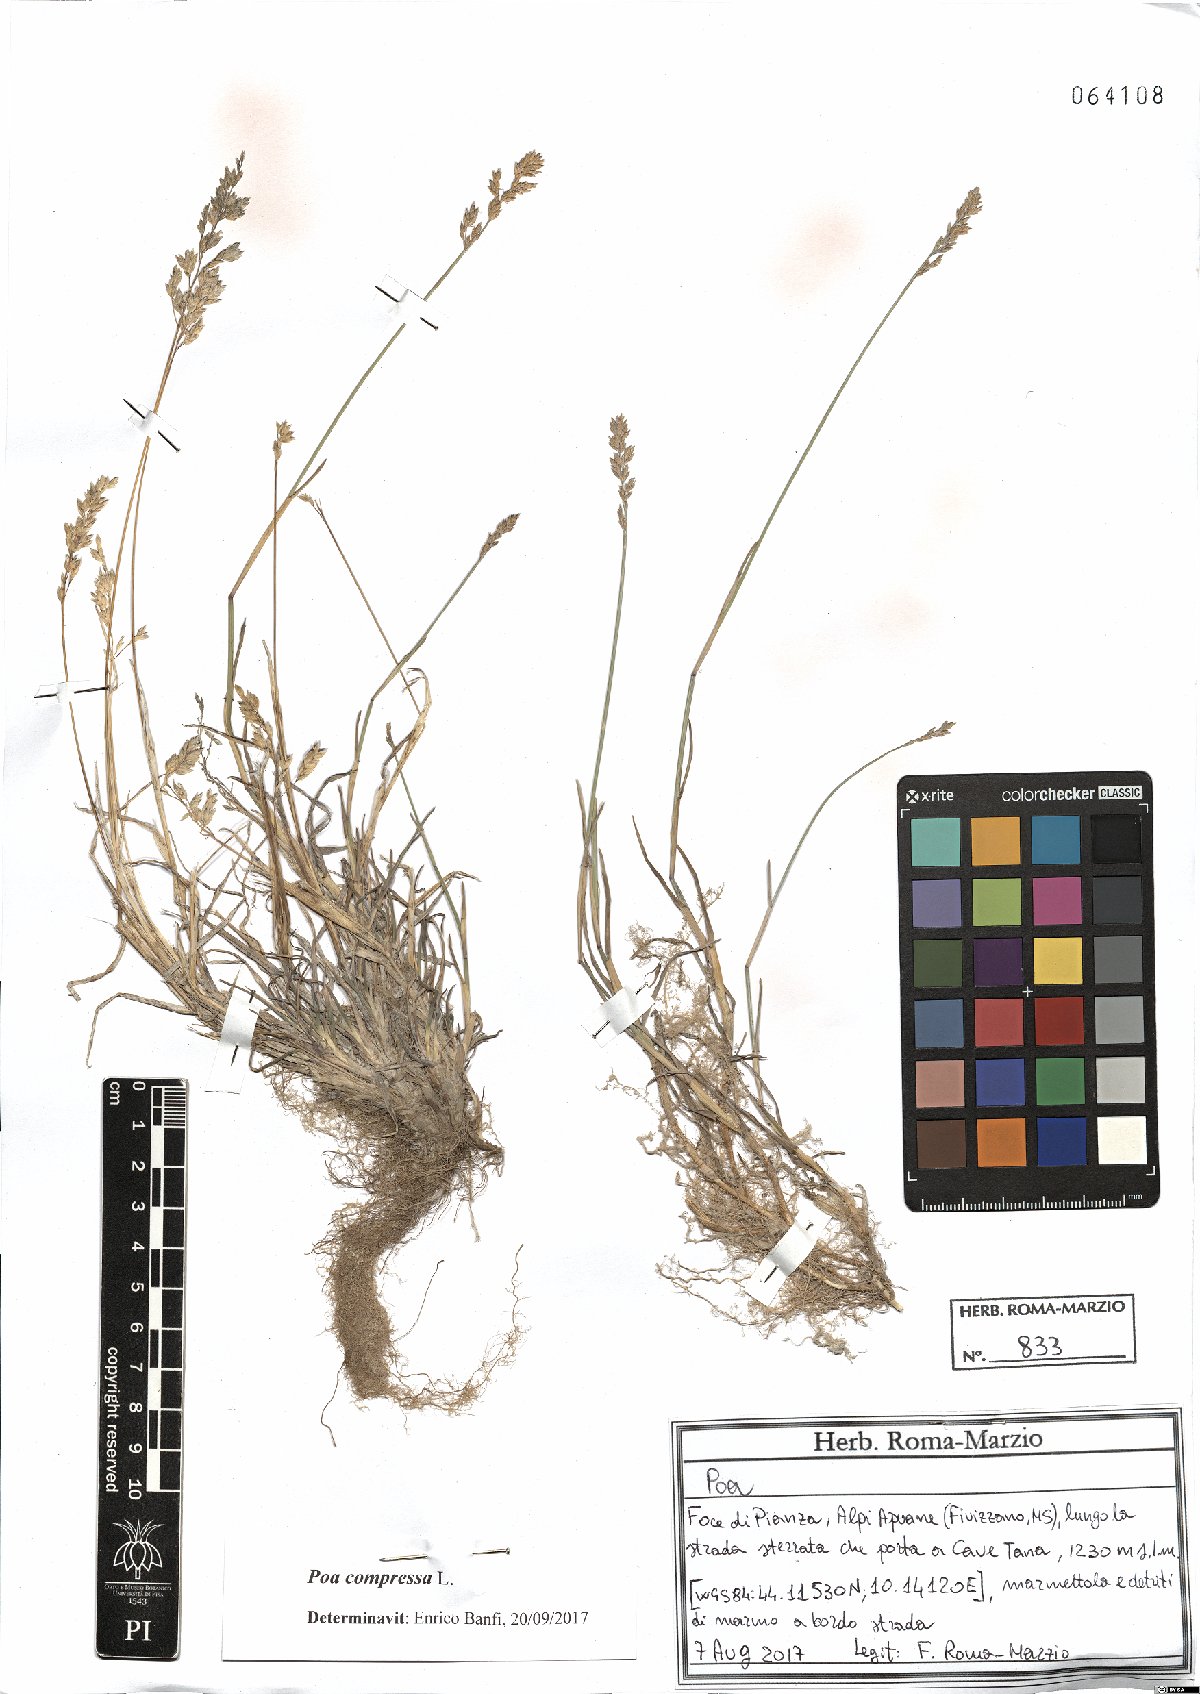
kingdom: Plantae
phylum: Tracheophyta
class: Liliopsida
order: Poales
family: Poaceae
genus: Poa
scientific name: Poa compressa
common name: Canada bluegrass
